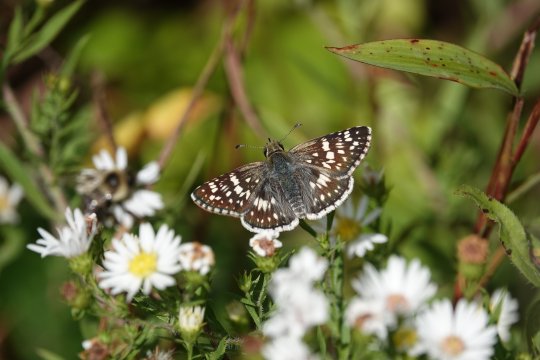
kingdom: Animalia
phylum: Arthropoda
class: Insecta
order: Lepidoptera
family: Hesperiidae
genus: Pyrgus
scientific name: Pyrgus communis
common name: Common Checkered-Skipper
